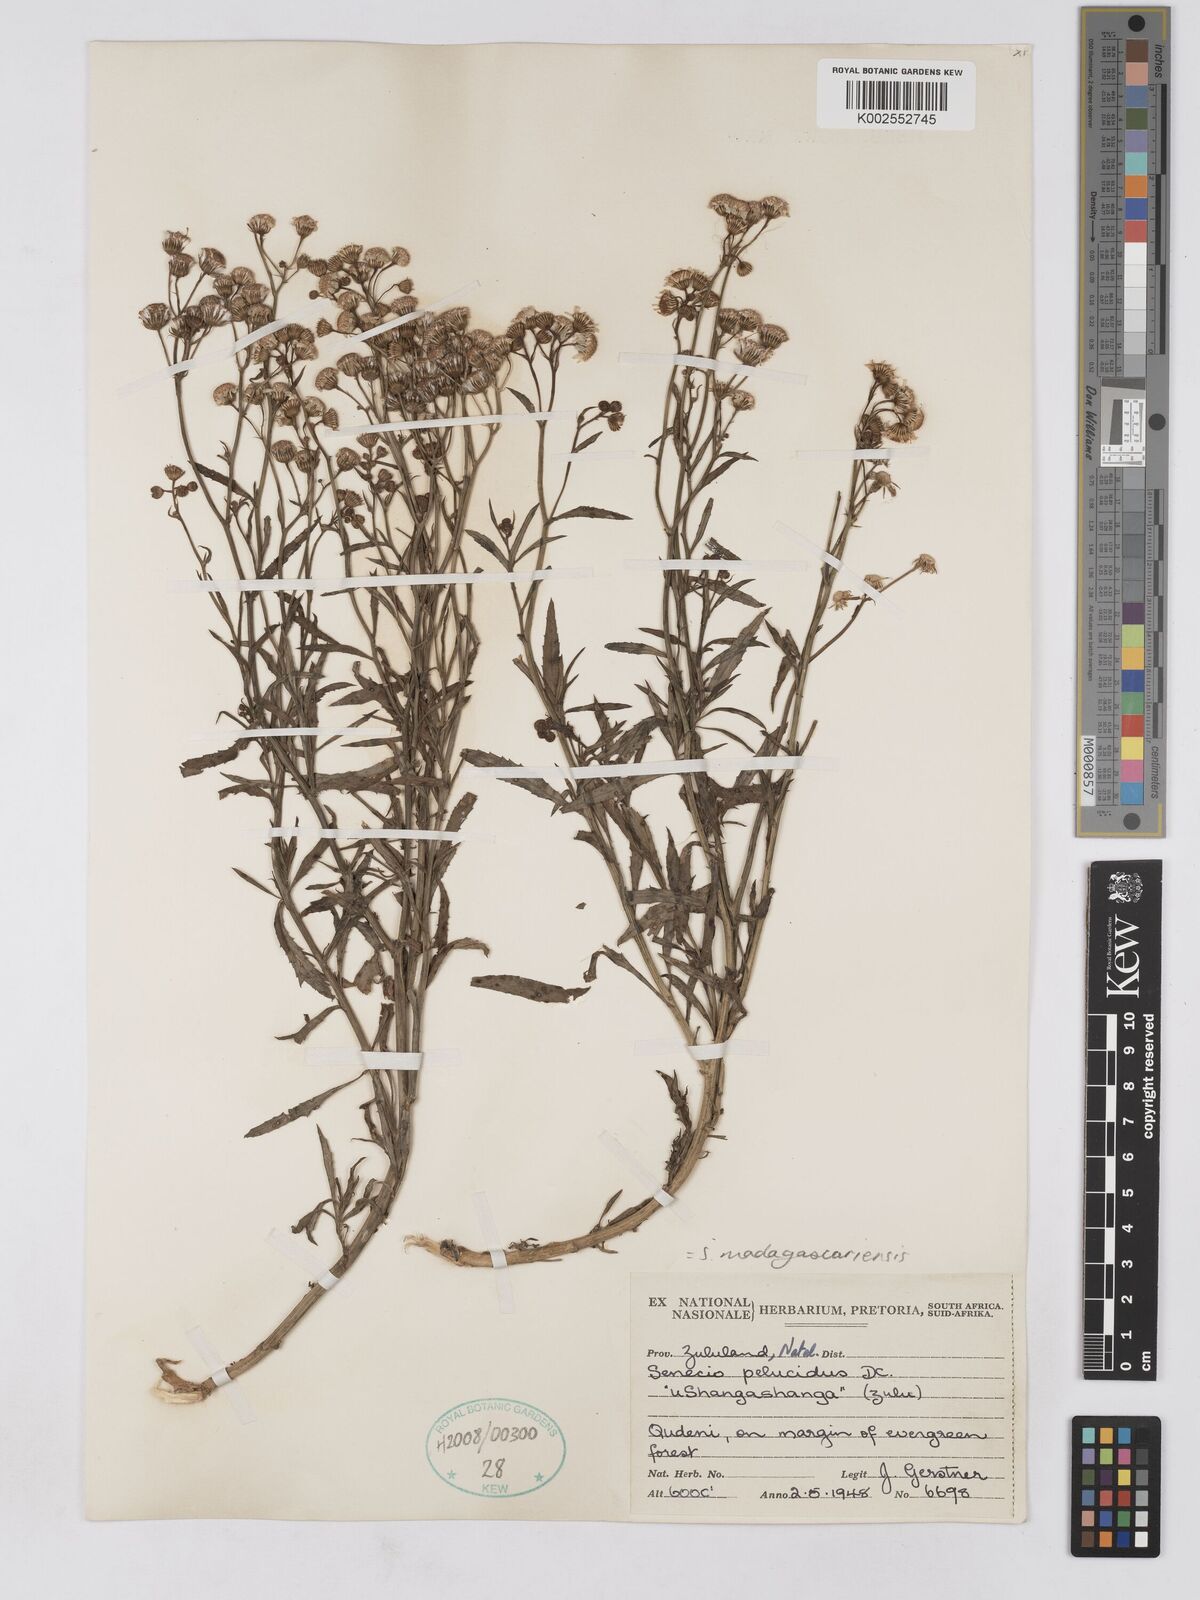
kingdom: Plantae
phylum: Tracheophyta
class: Magnoliopsida
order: Asterales
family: Asteraceae
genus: Senecio
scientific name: Senecio madagascariensis
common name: Madagascar ragwort
